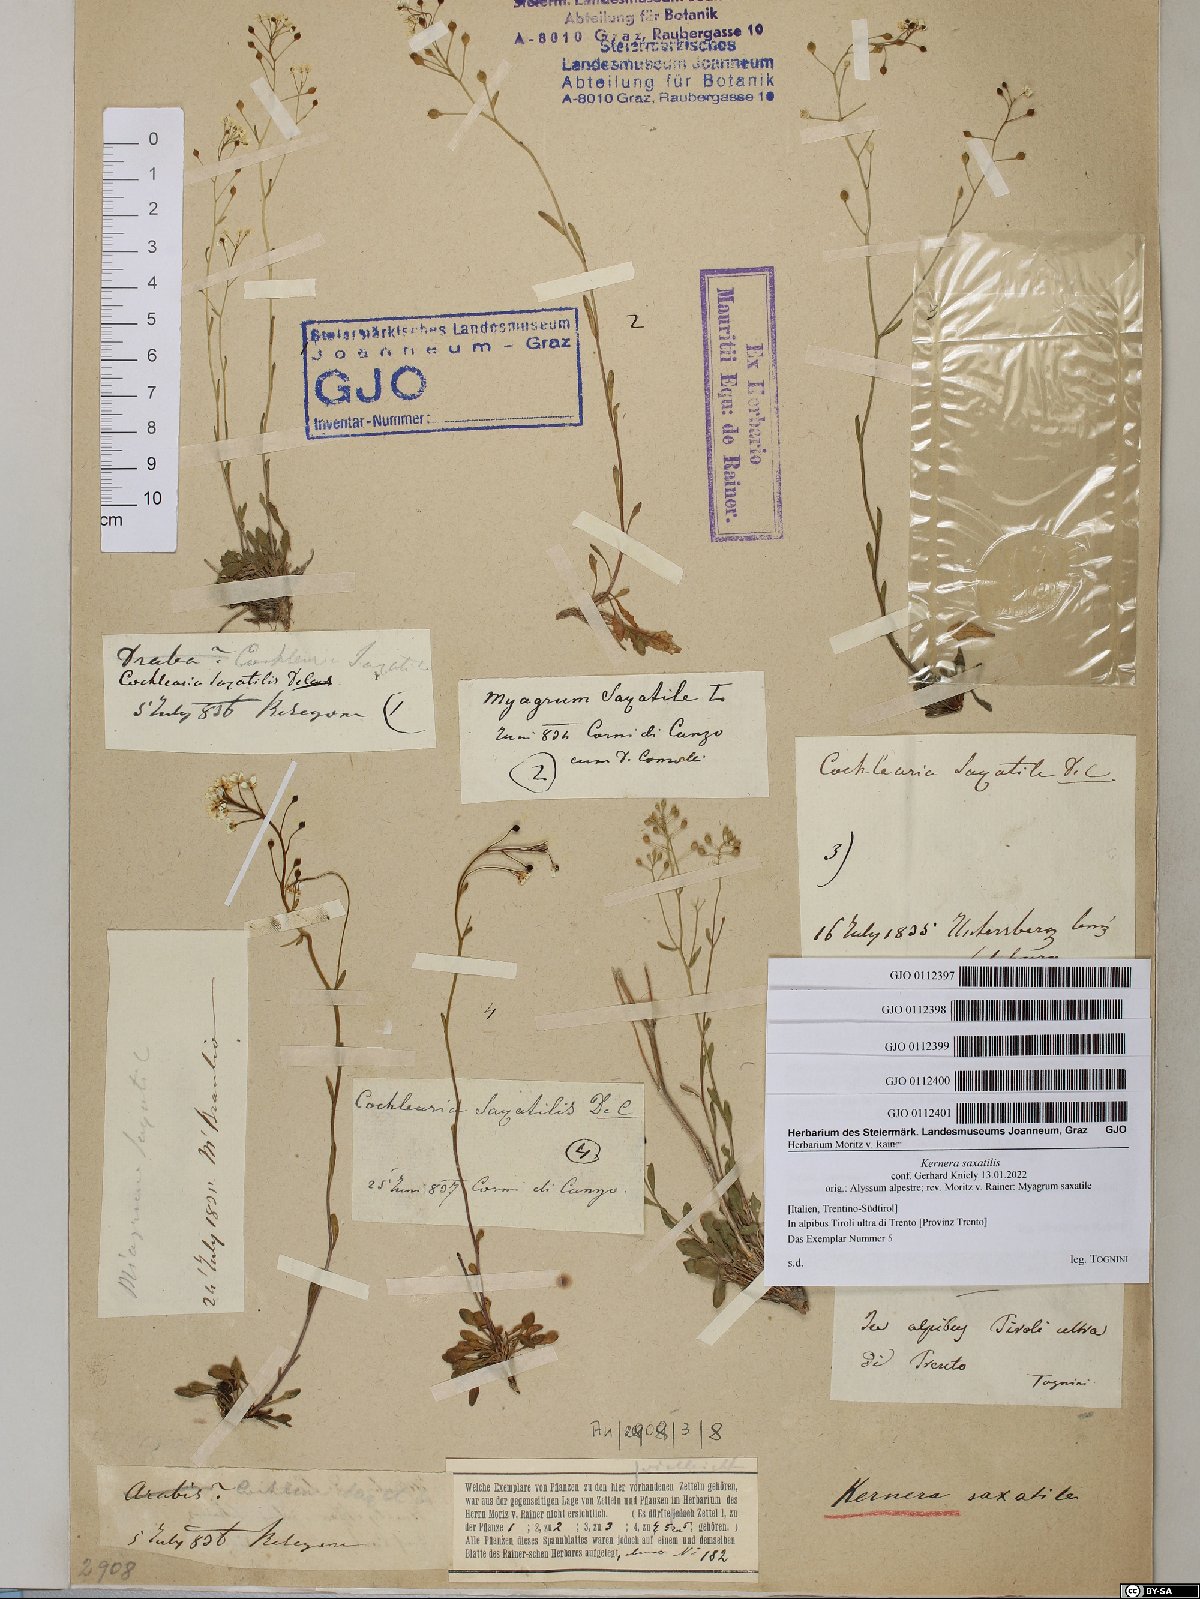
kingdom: Plantae
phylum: Tracheophyta
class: Magnoliopsida
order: Brassicales
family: Brassicaceae
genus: Kernera
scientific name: Kernera saxatilis
